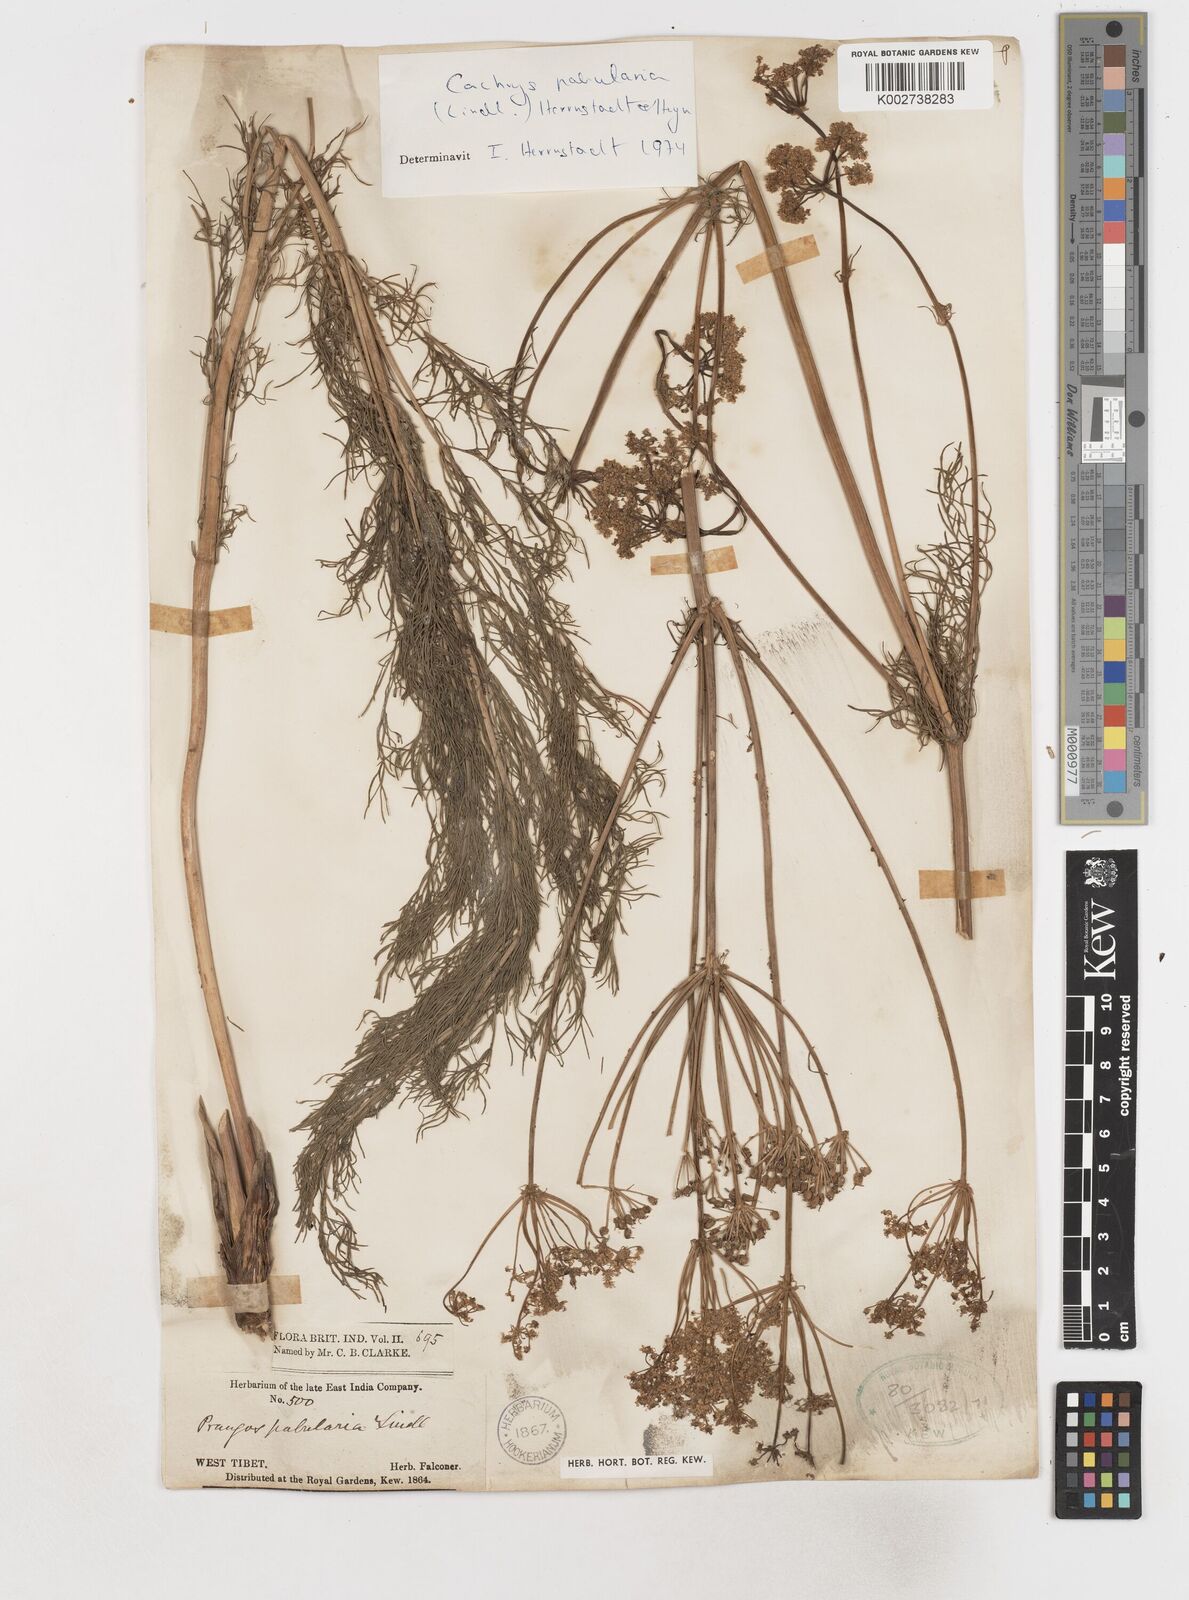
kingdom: Plantae
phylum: Tracheophyta
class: Magnoliopsida
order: Apiales
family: Apiaceae
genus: Prangos
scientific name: Prangos pabularia
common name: Yugan
